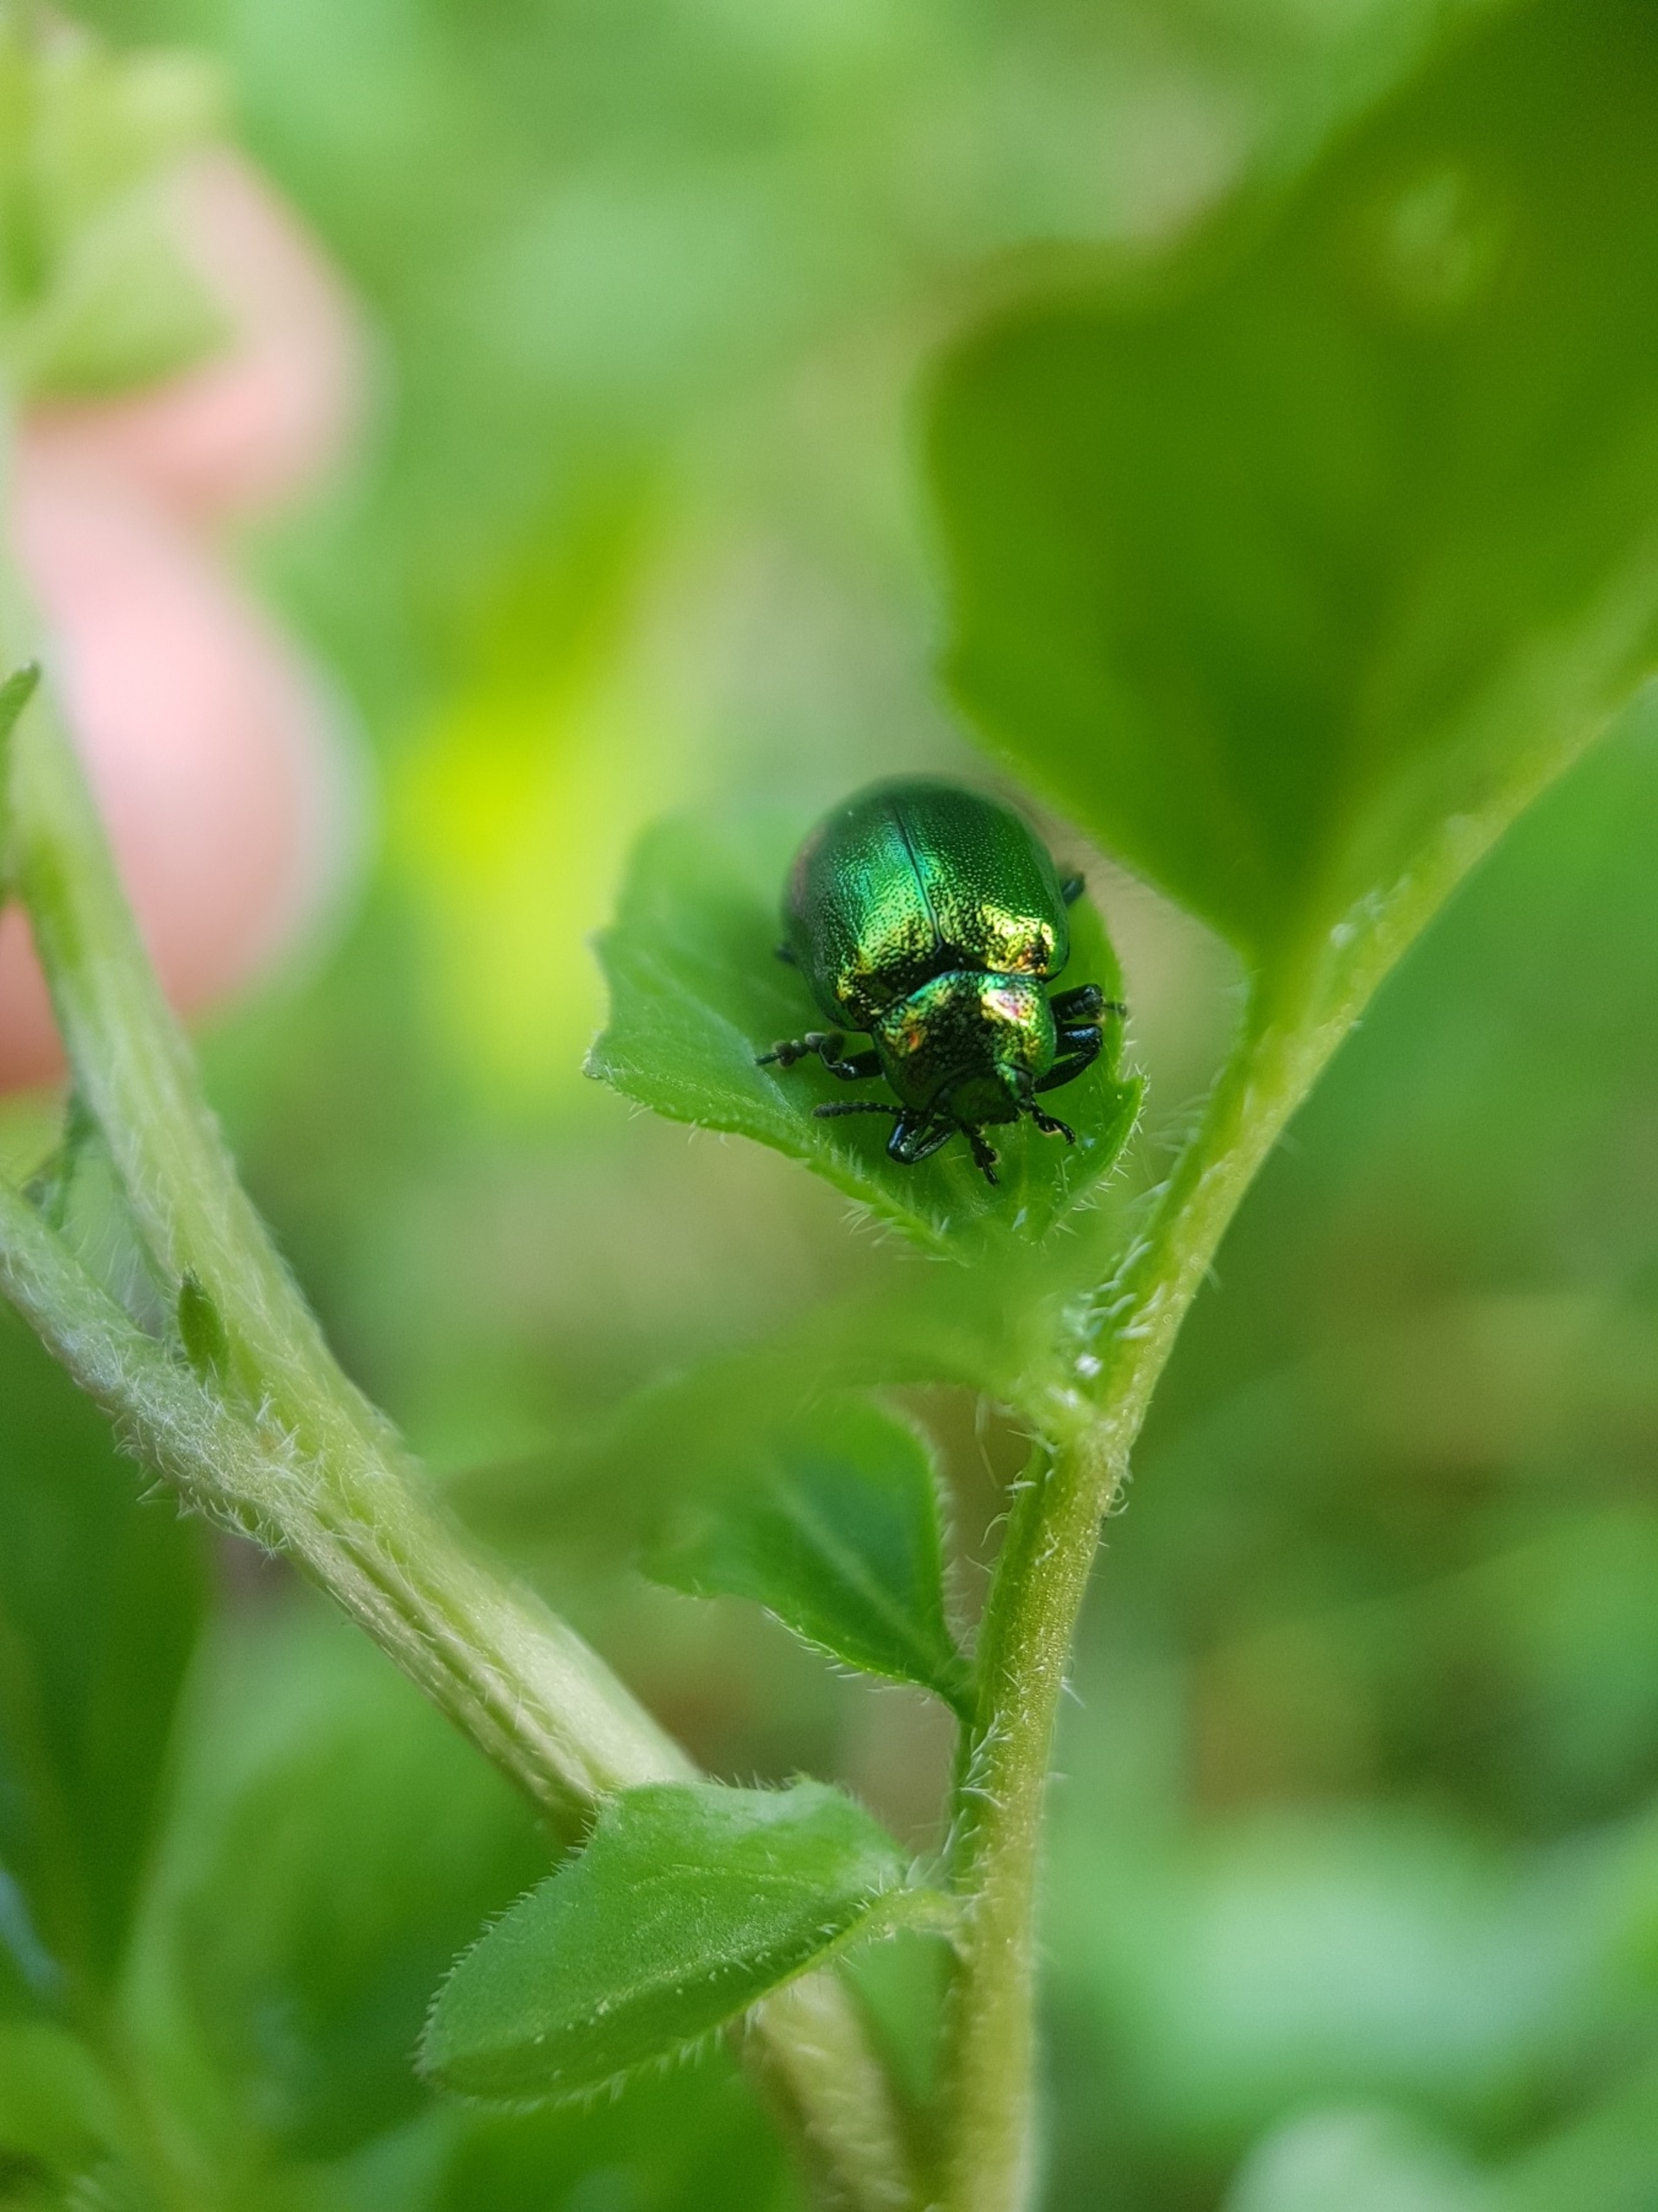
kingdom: Animalia
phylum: Arthropoda
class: Insecta
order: Coleoptera
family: Chrysomelidae
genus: Plagiosterna
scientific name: Plagiosterna aenea
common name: Blågrøn ellebladbille
